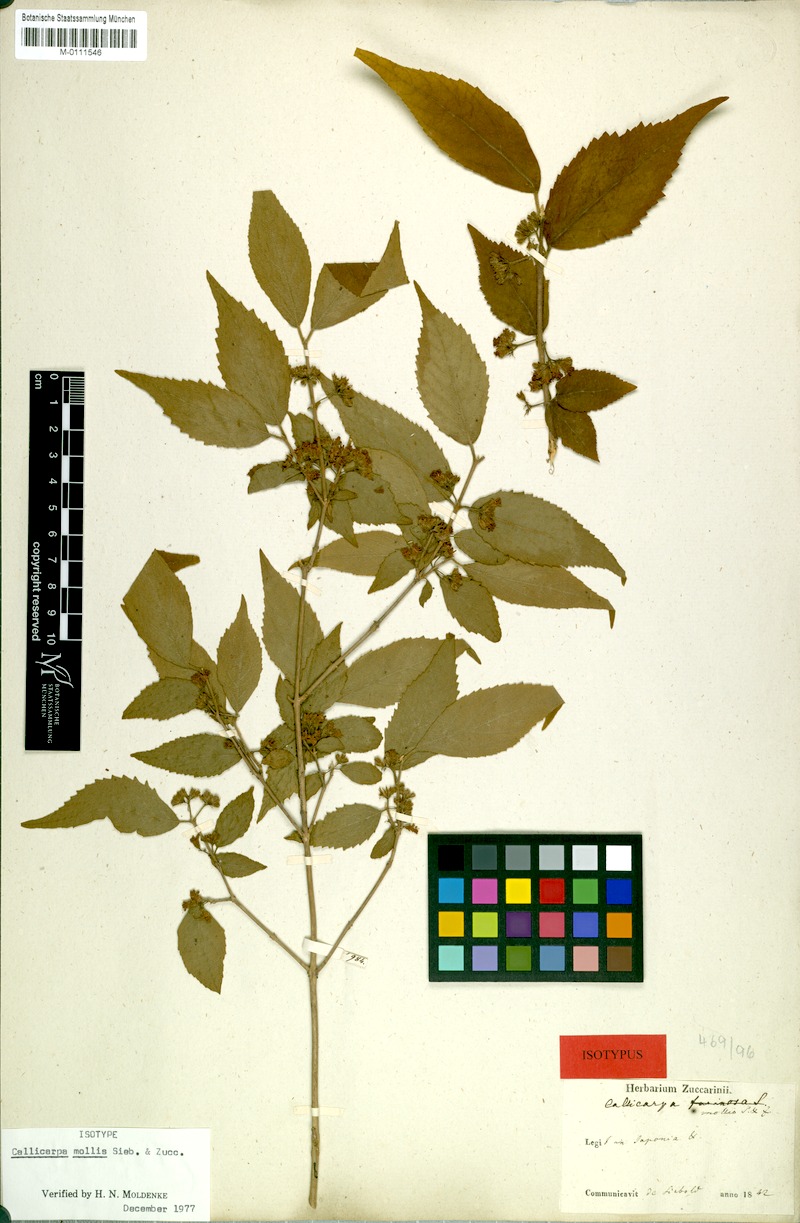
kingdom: Plantae
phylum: Tracheophyta
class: Magnoliopsida
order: Lamiales
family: Lamiaceae
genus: Callicarpa
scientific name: Callicarpa mollis
